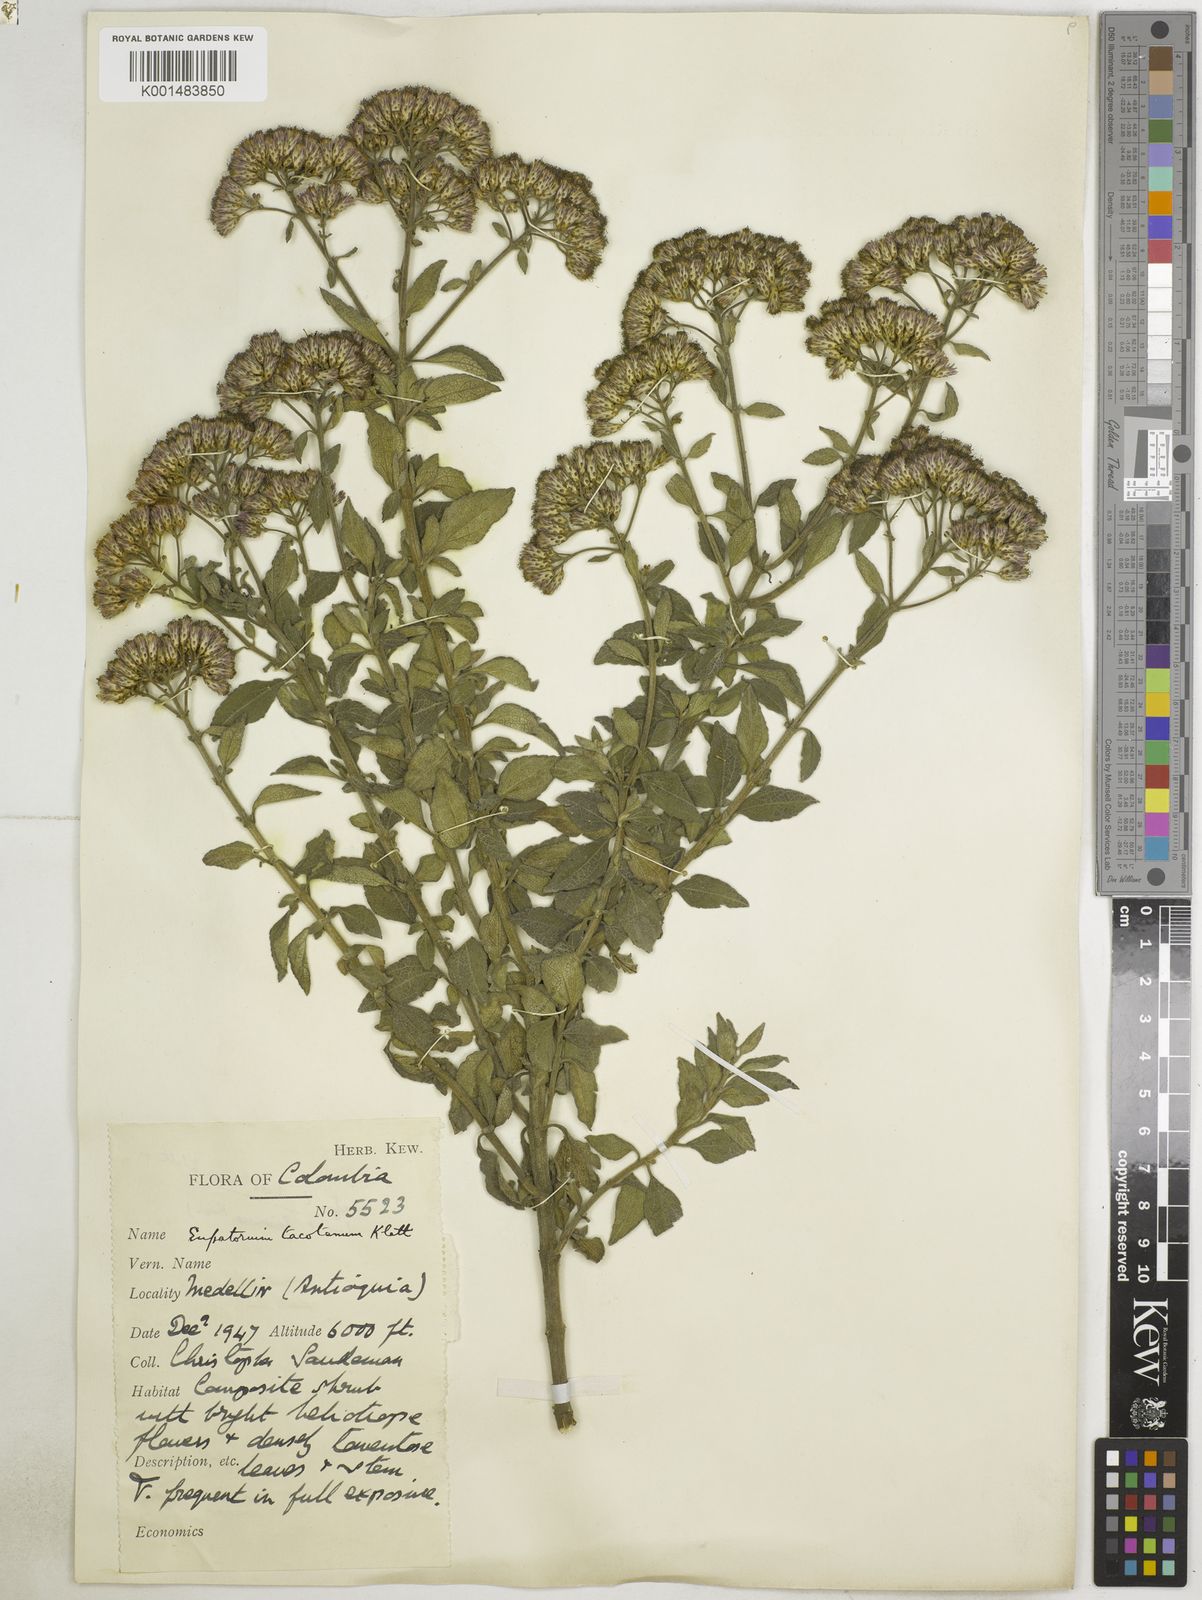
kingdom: Plantae
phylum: Tracheophyta
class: Magnoliopsida
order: Asterales
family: Asteraceae
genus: Chromolaena
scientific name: Chromolaena tacotana
